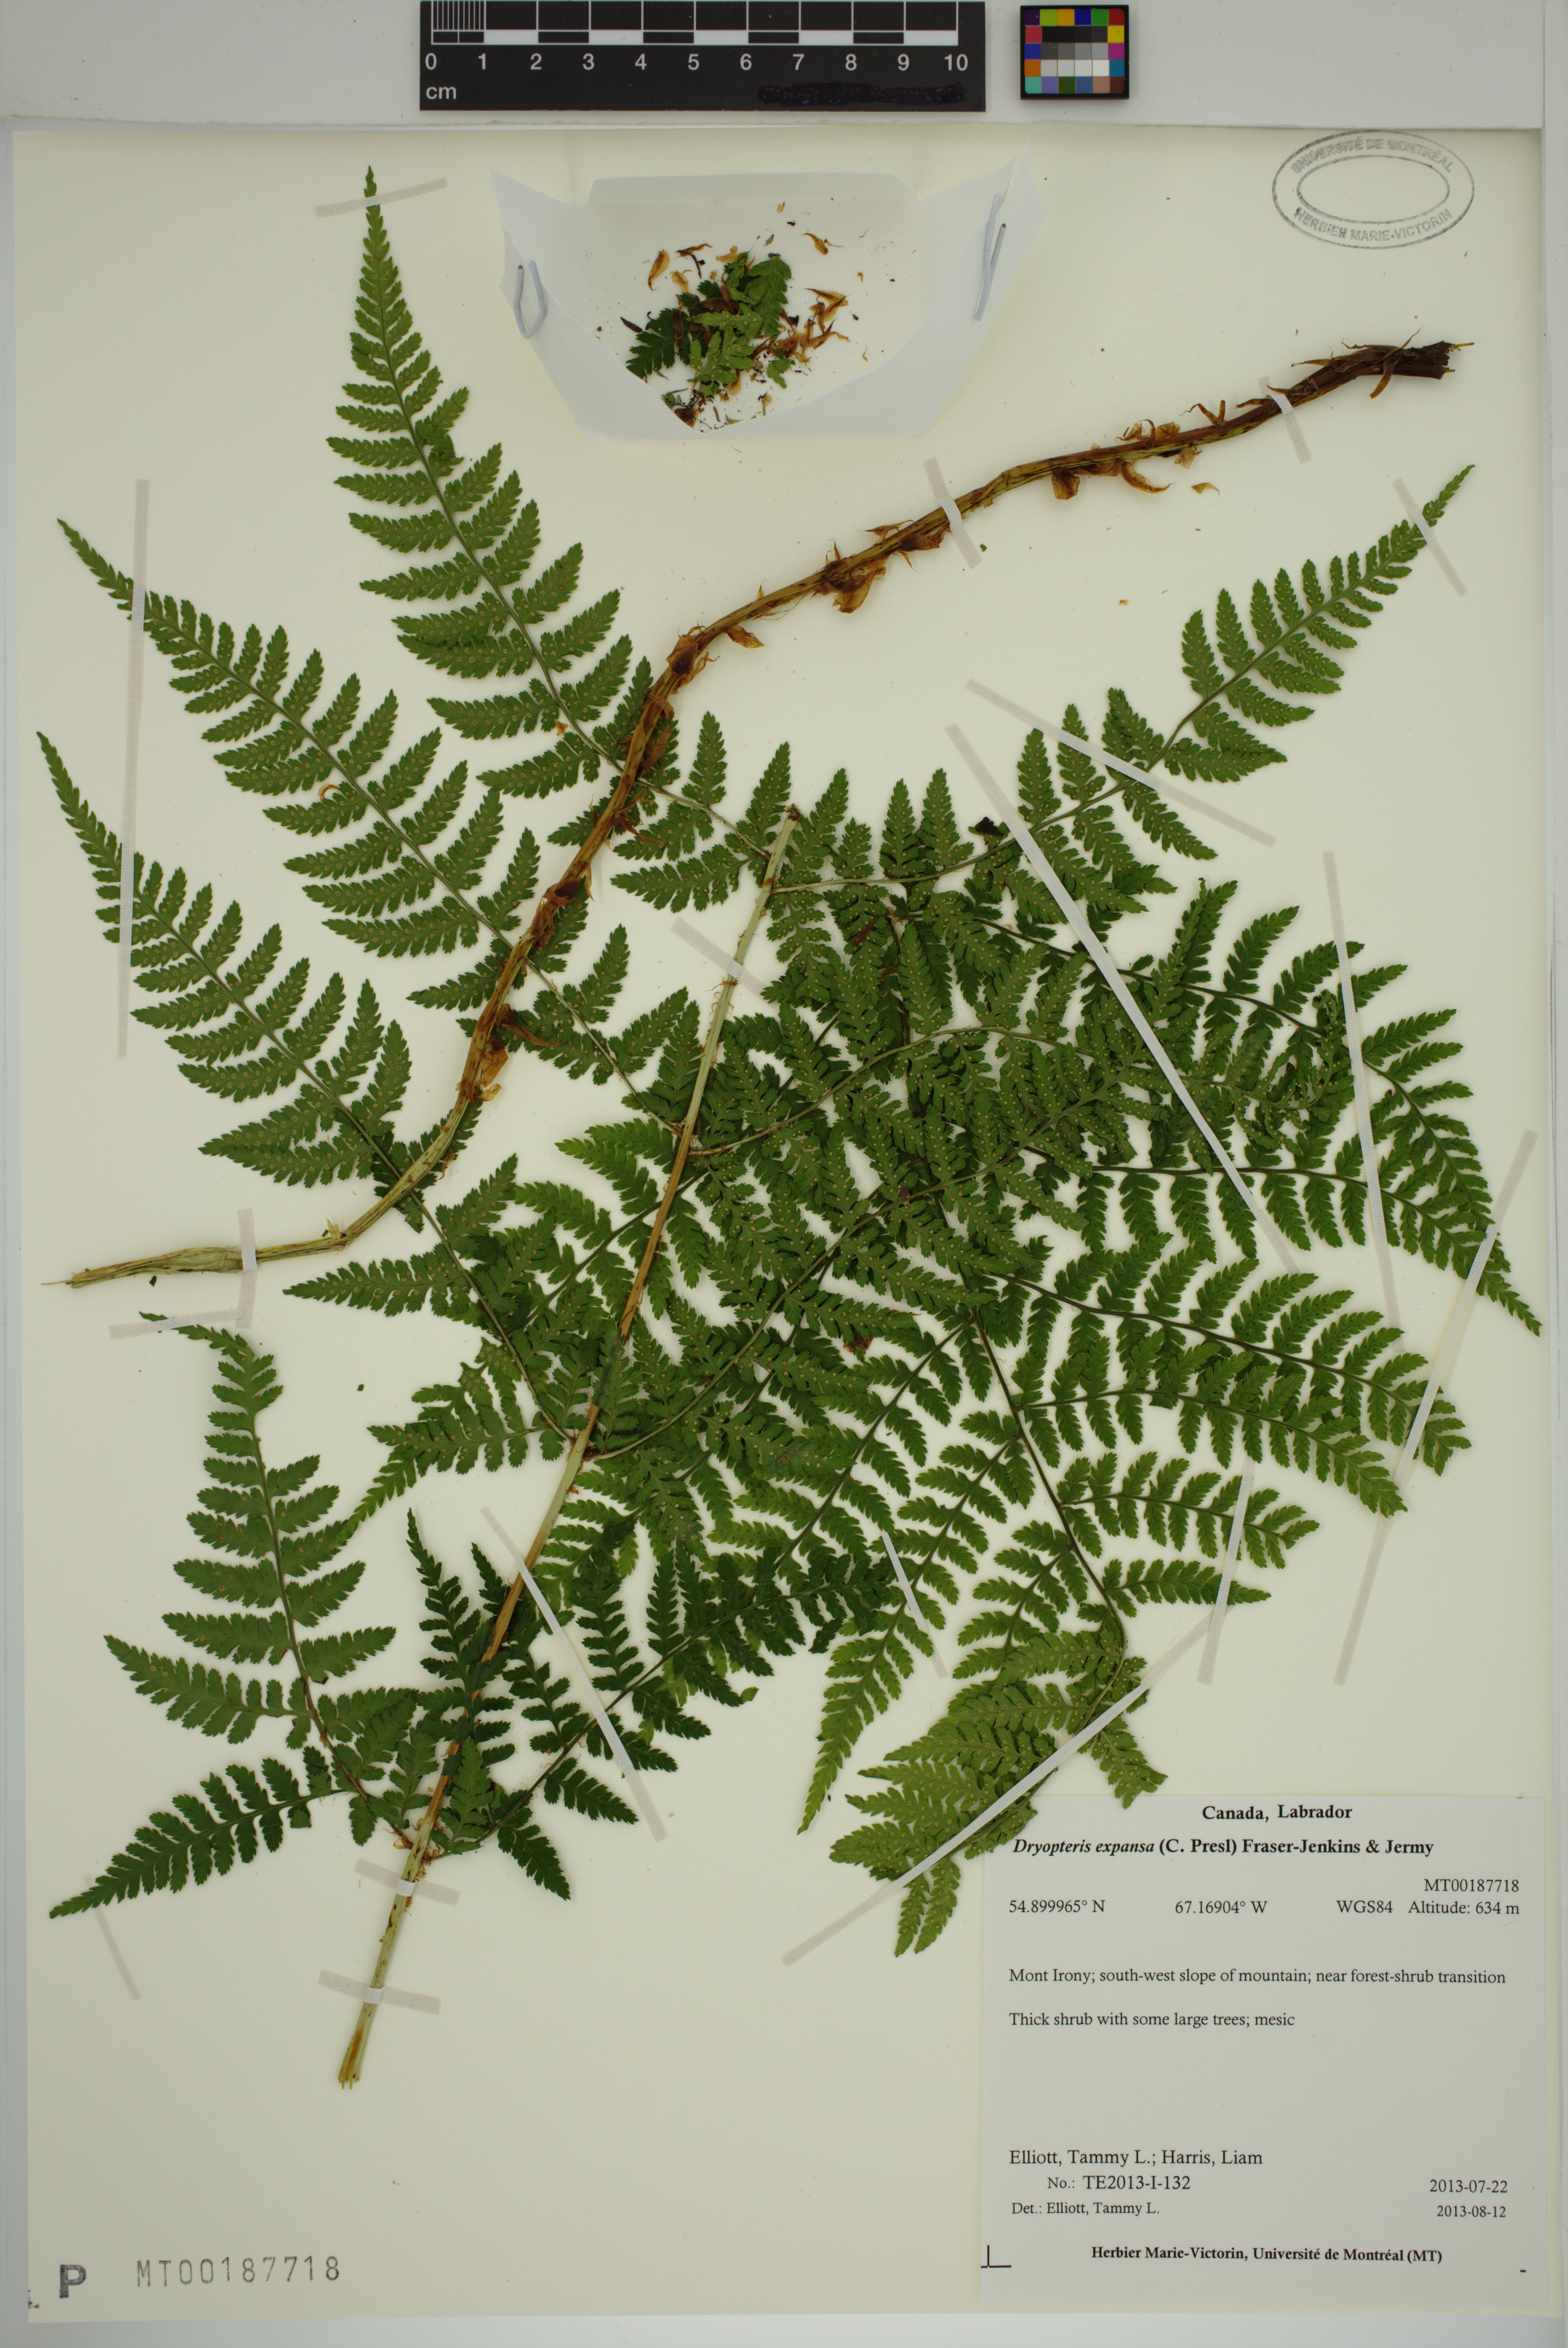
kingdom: Plantae
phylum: Tracheophyta
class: Polypodiopsida
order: Polypodiales
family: Dryopteridaceae
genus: Dryopteris
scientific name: Dryopteris expansa
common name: Northern buckler fern
